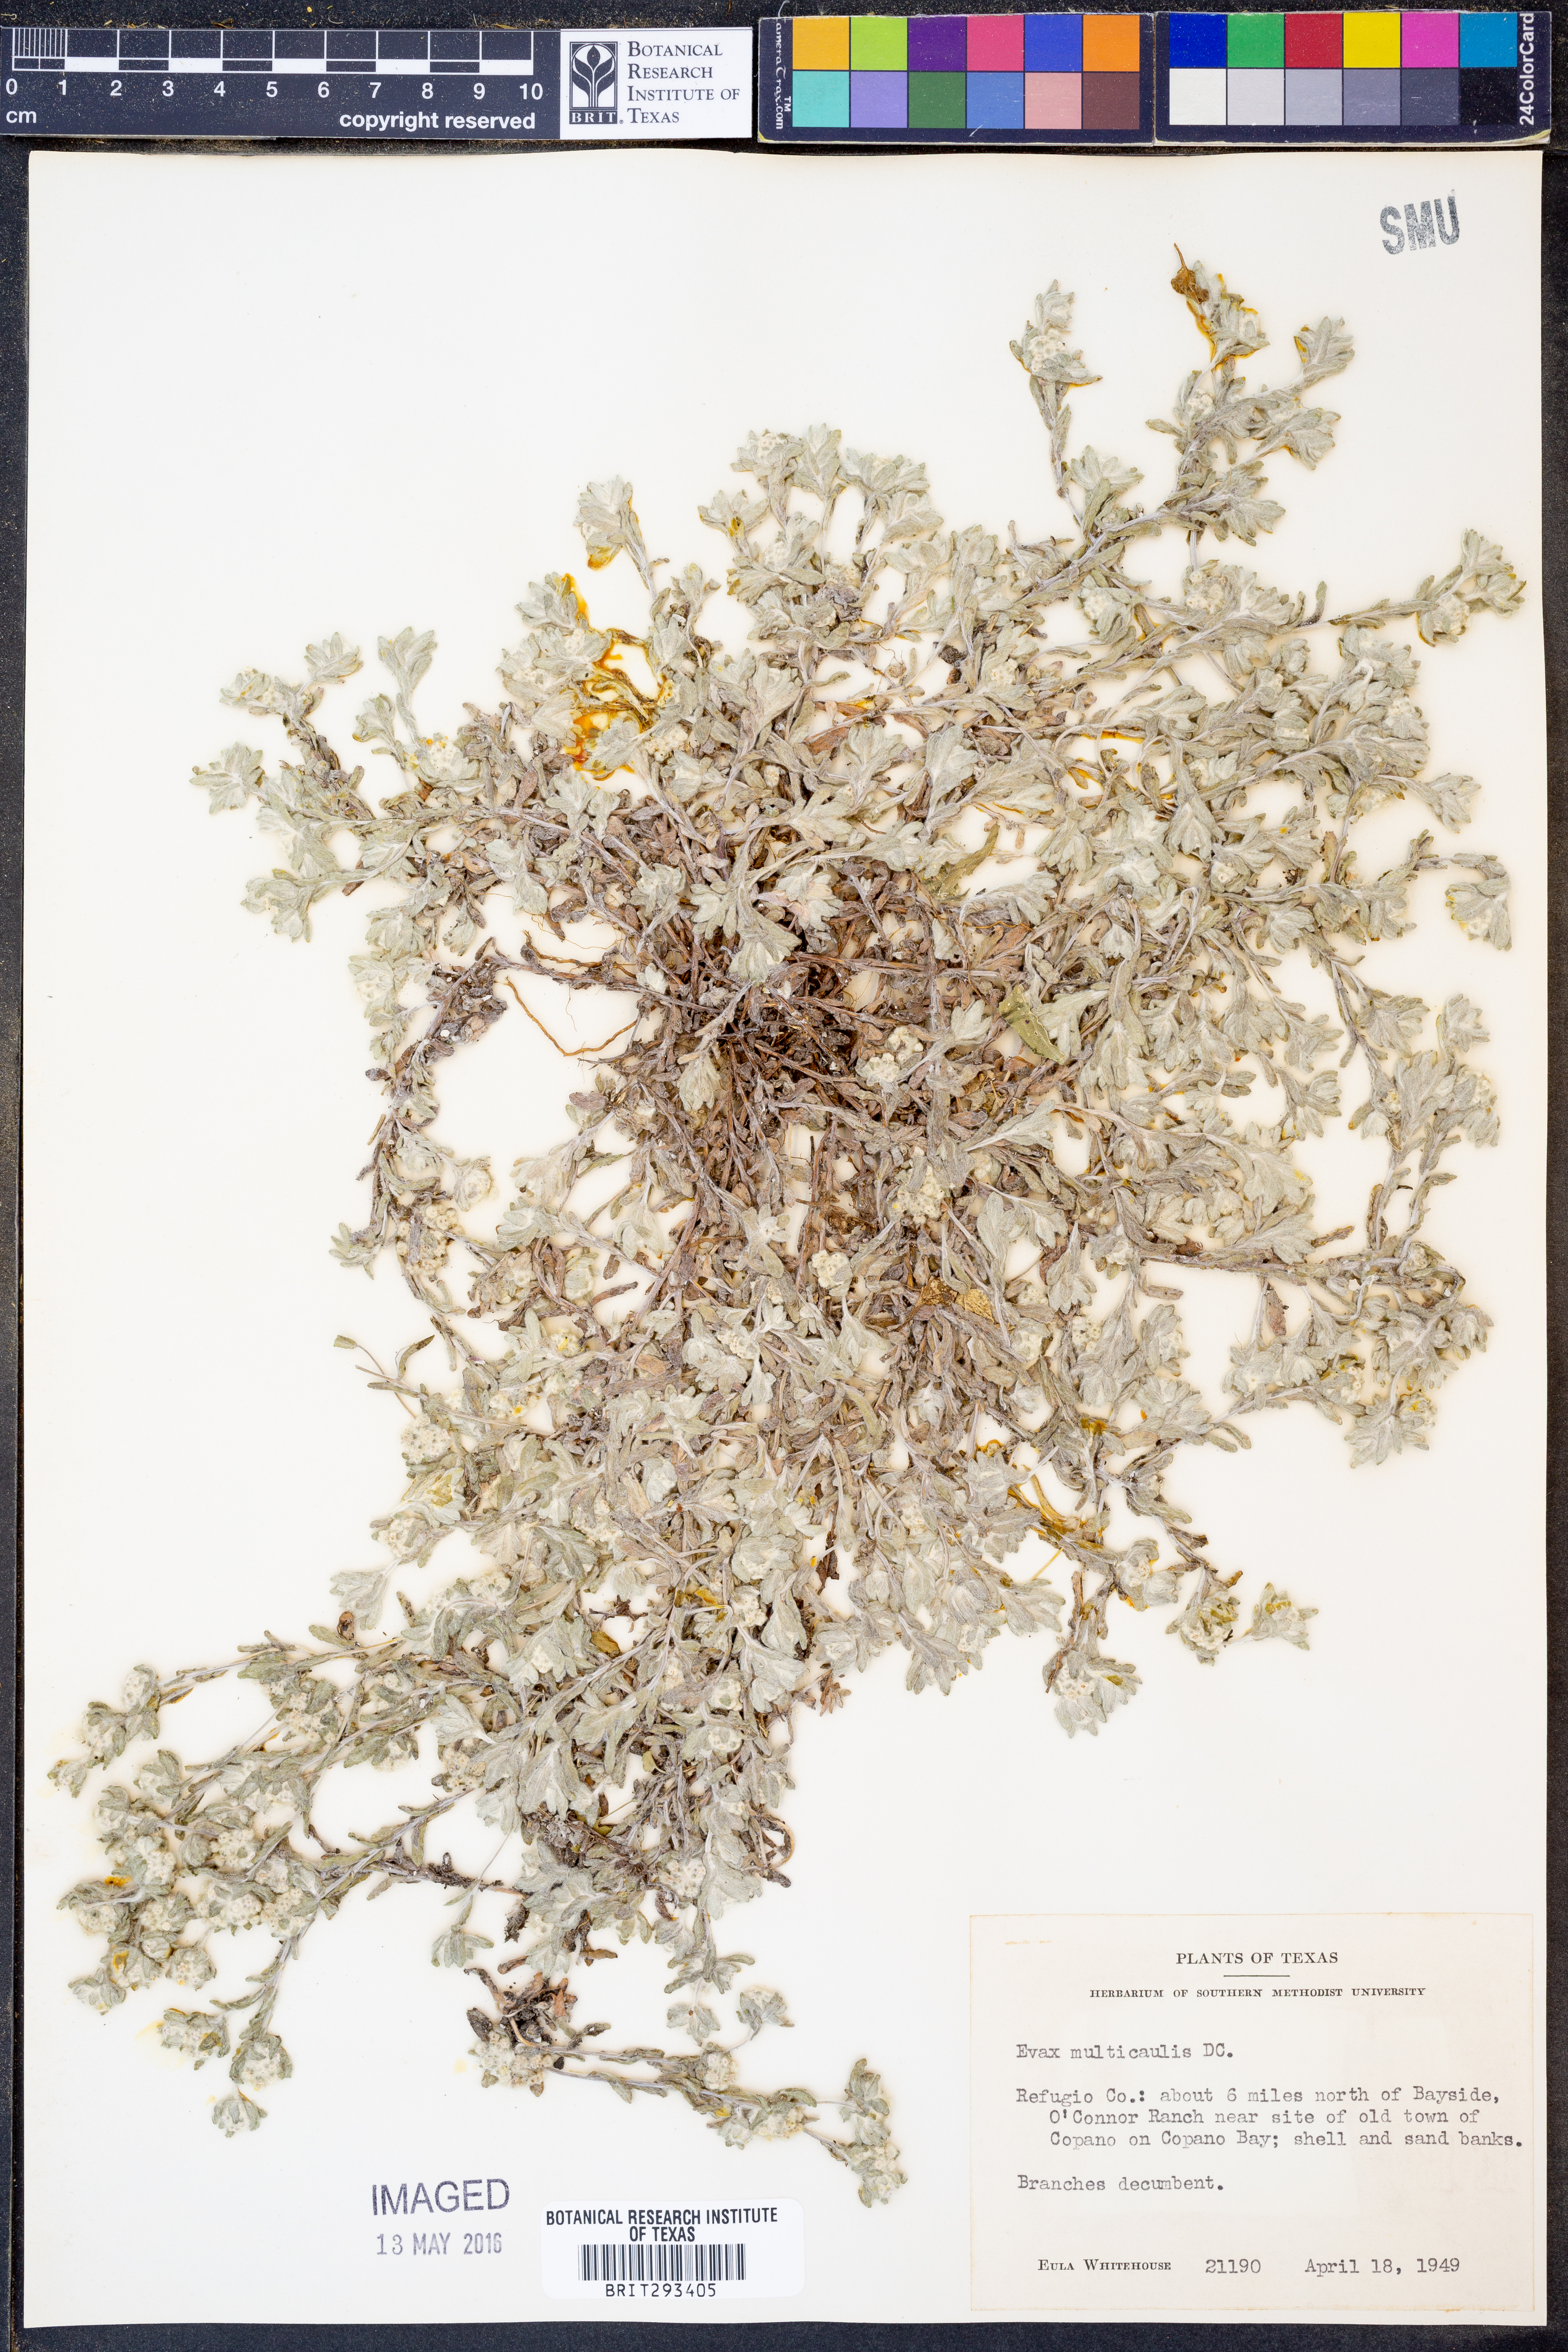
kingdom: Plantae
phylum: Tracheophyta
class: Magnoliopsida
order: Asterales
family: Asteraceae
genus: Diaperia
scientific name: Diaperia verna
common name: Many-stem rabbit-tobacco
